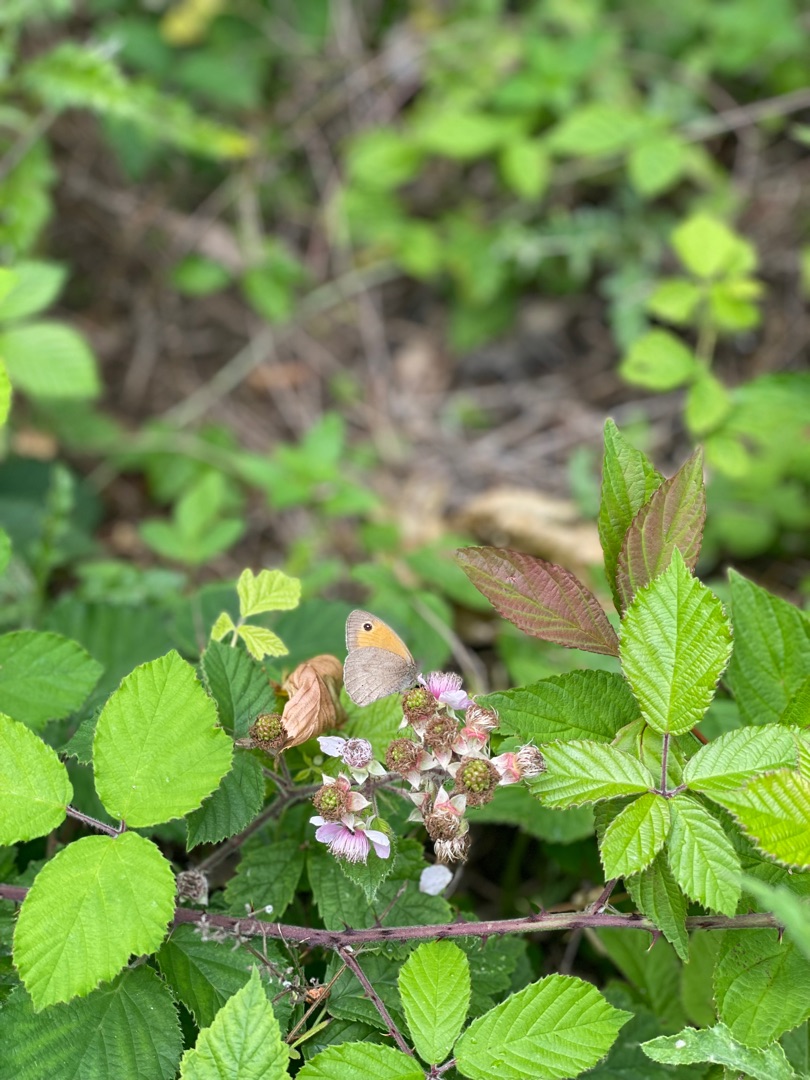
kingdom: Animalia
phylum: Arthropoda
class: Insecta
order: Lepidoptera
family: Nymphalidae
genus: Maniola
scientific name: Maniola jurtina
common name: Græsrandøje
